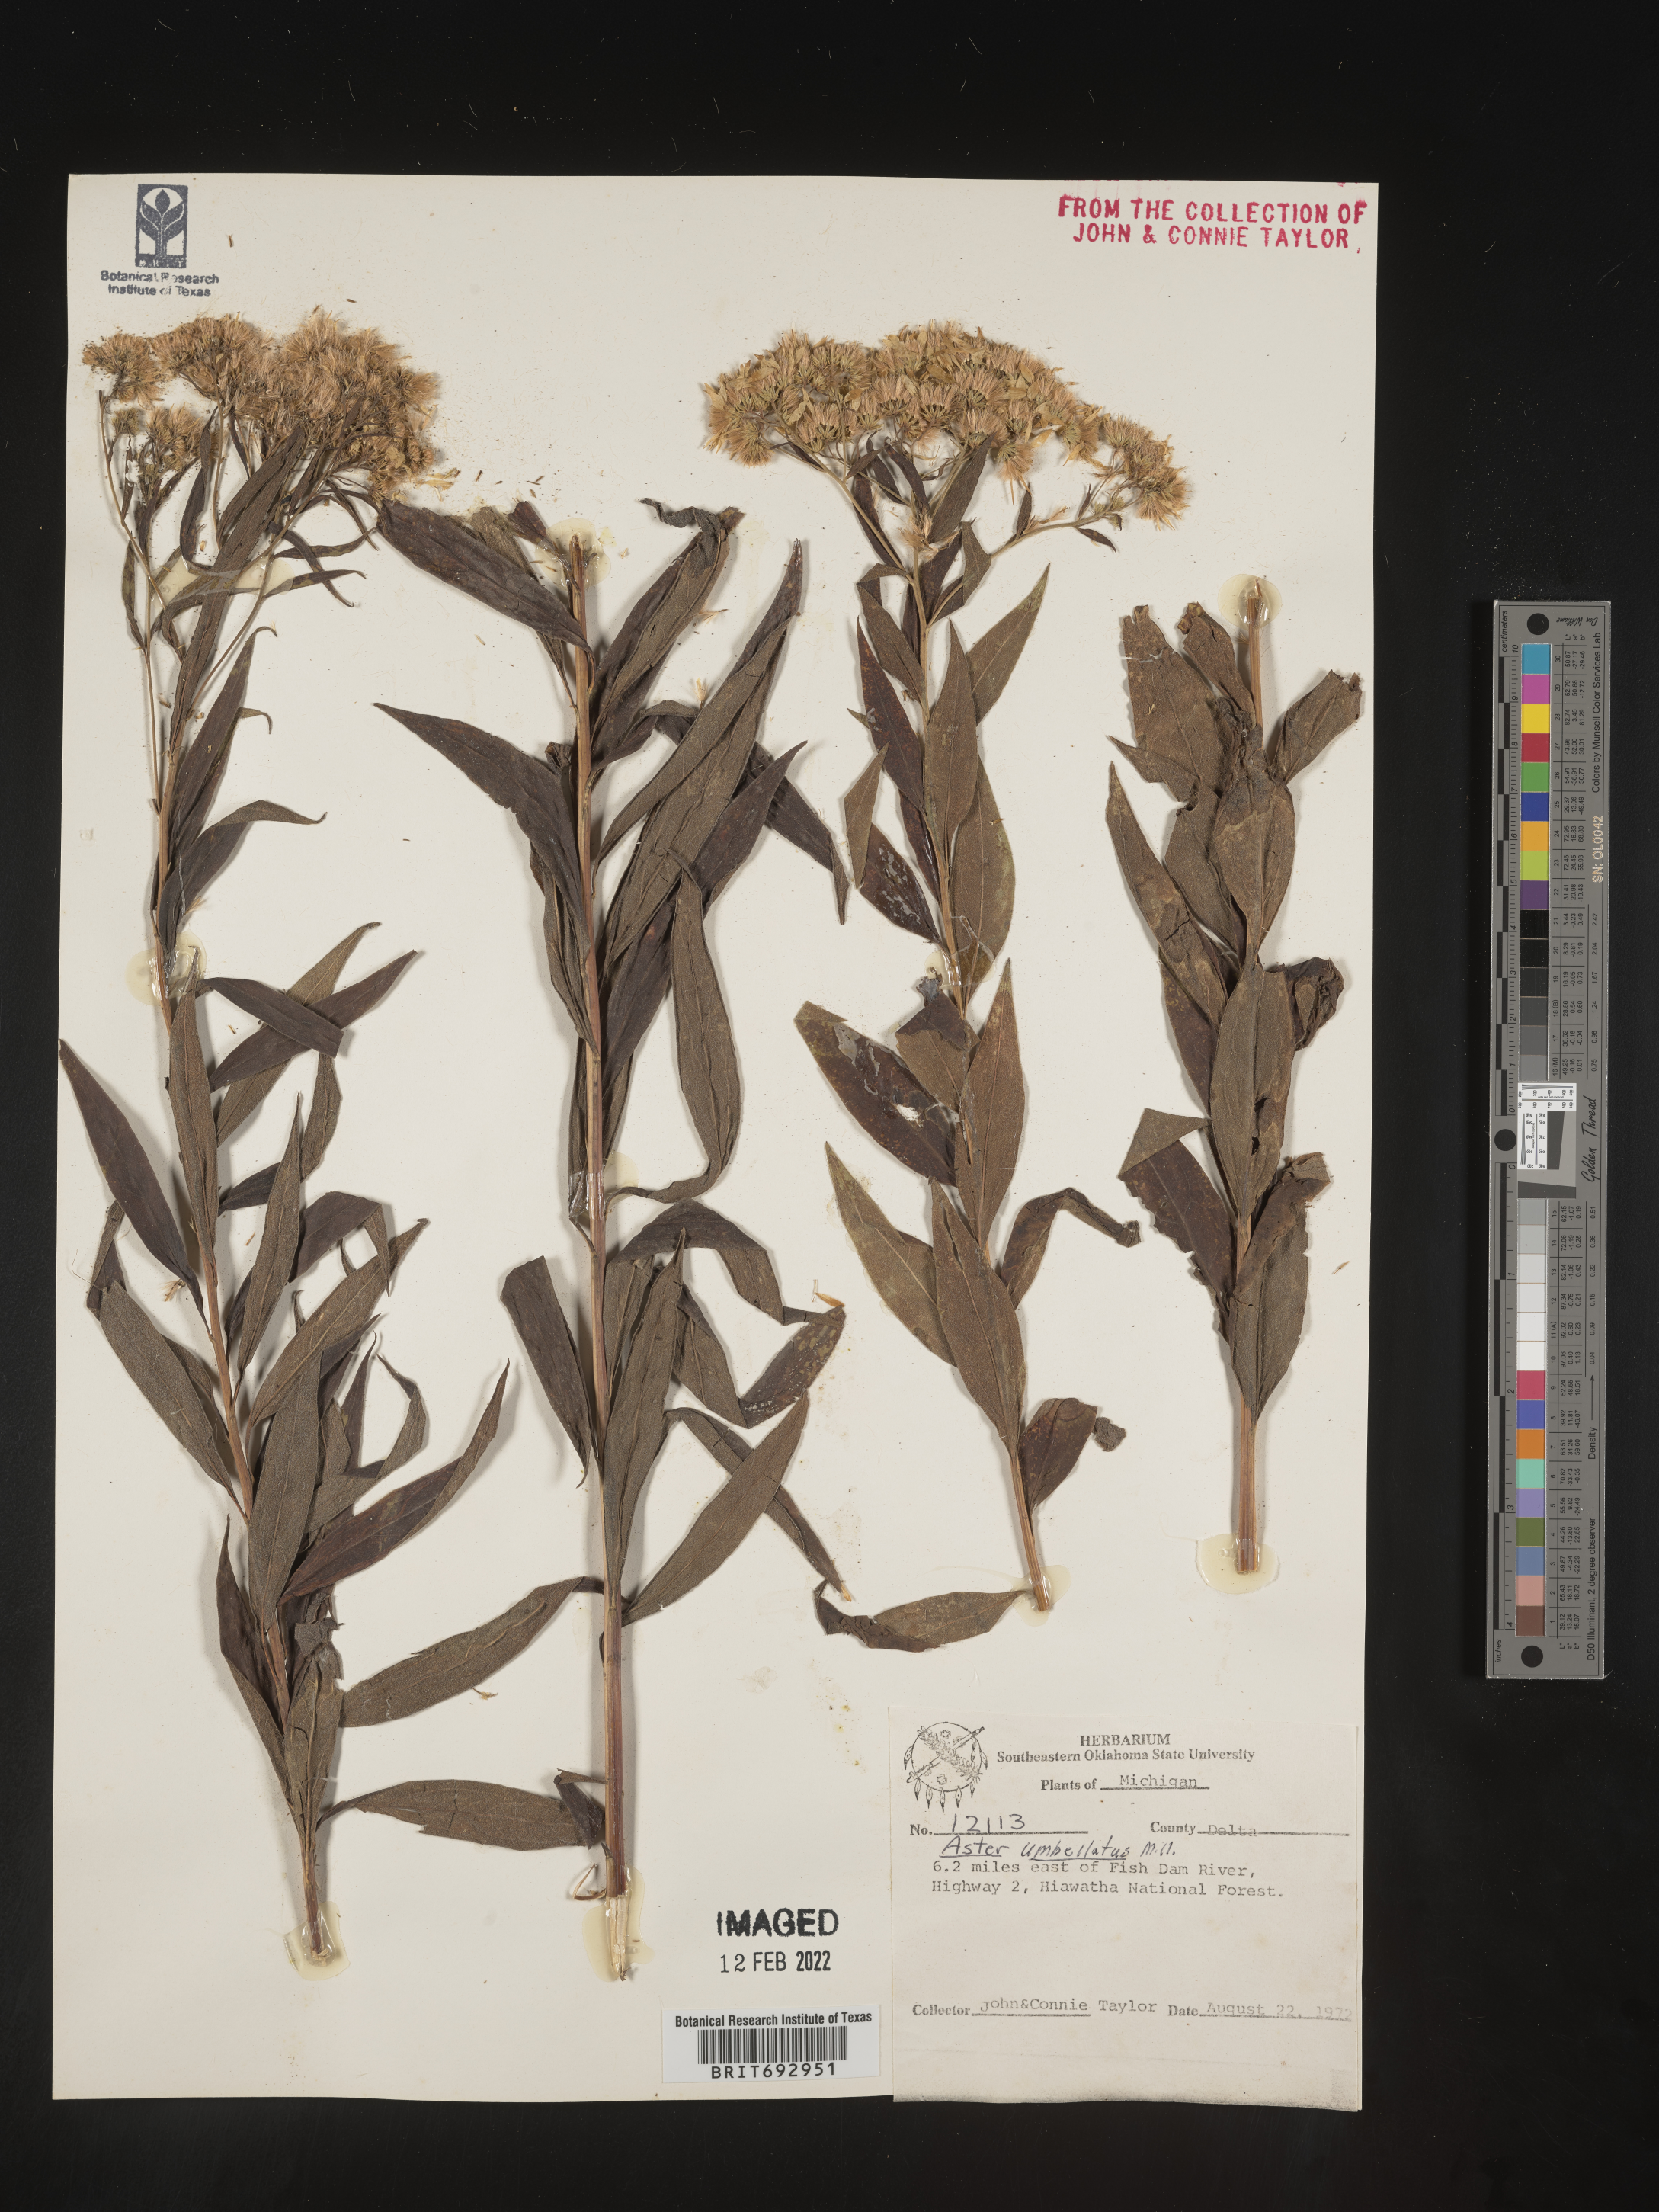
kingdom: Plantae
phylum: Tracheophyta
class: Magnoliopsida
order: Asterales
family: Asteraceae
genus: Doellingeria
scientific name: Doellingeria umbellata
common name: Flat-top white aster
